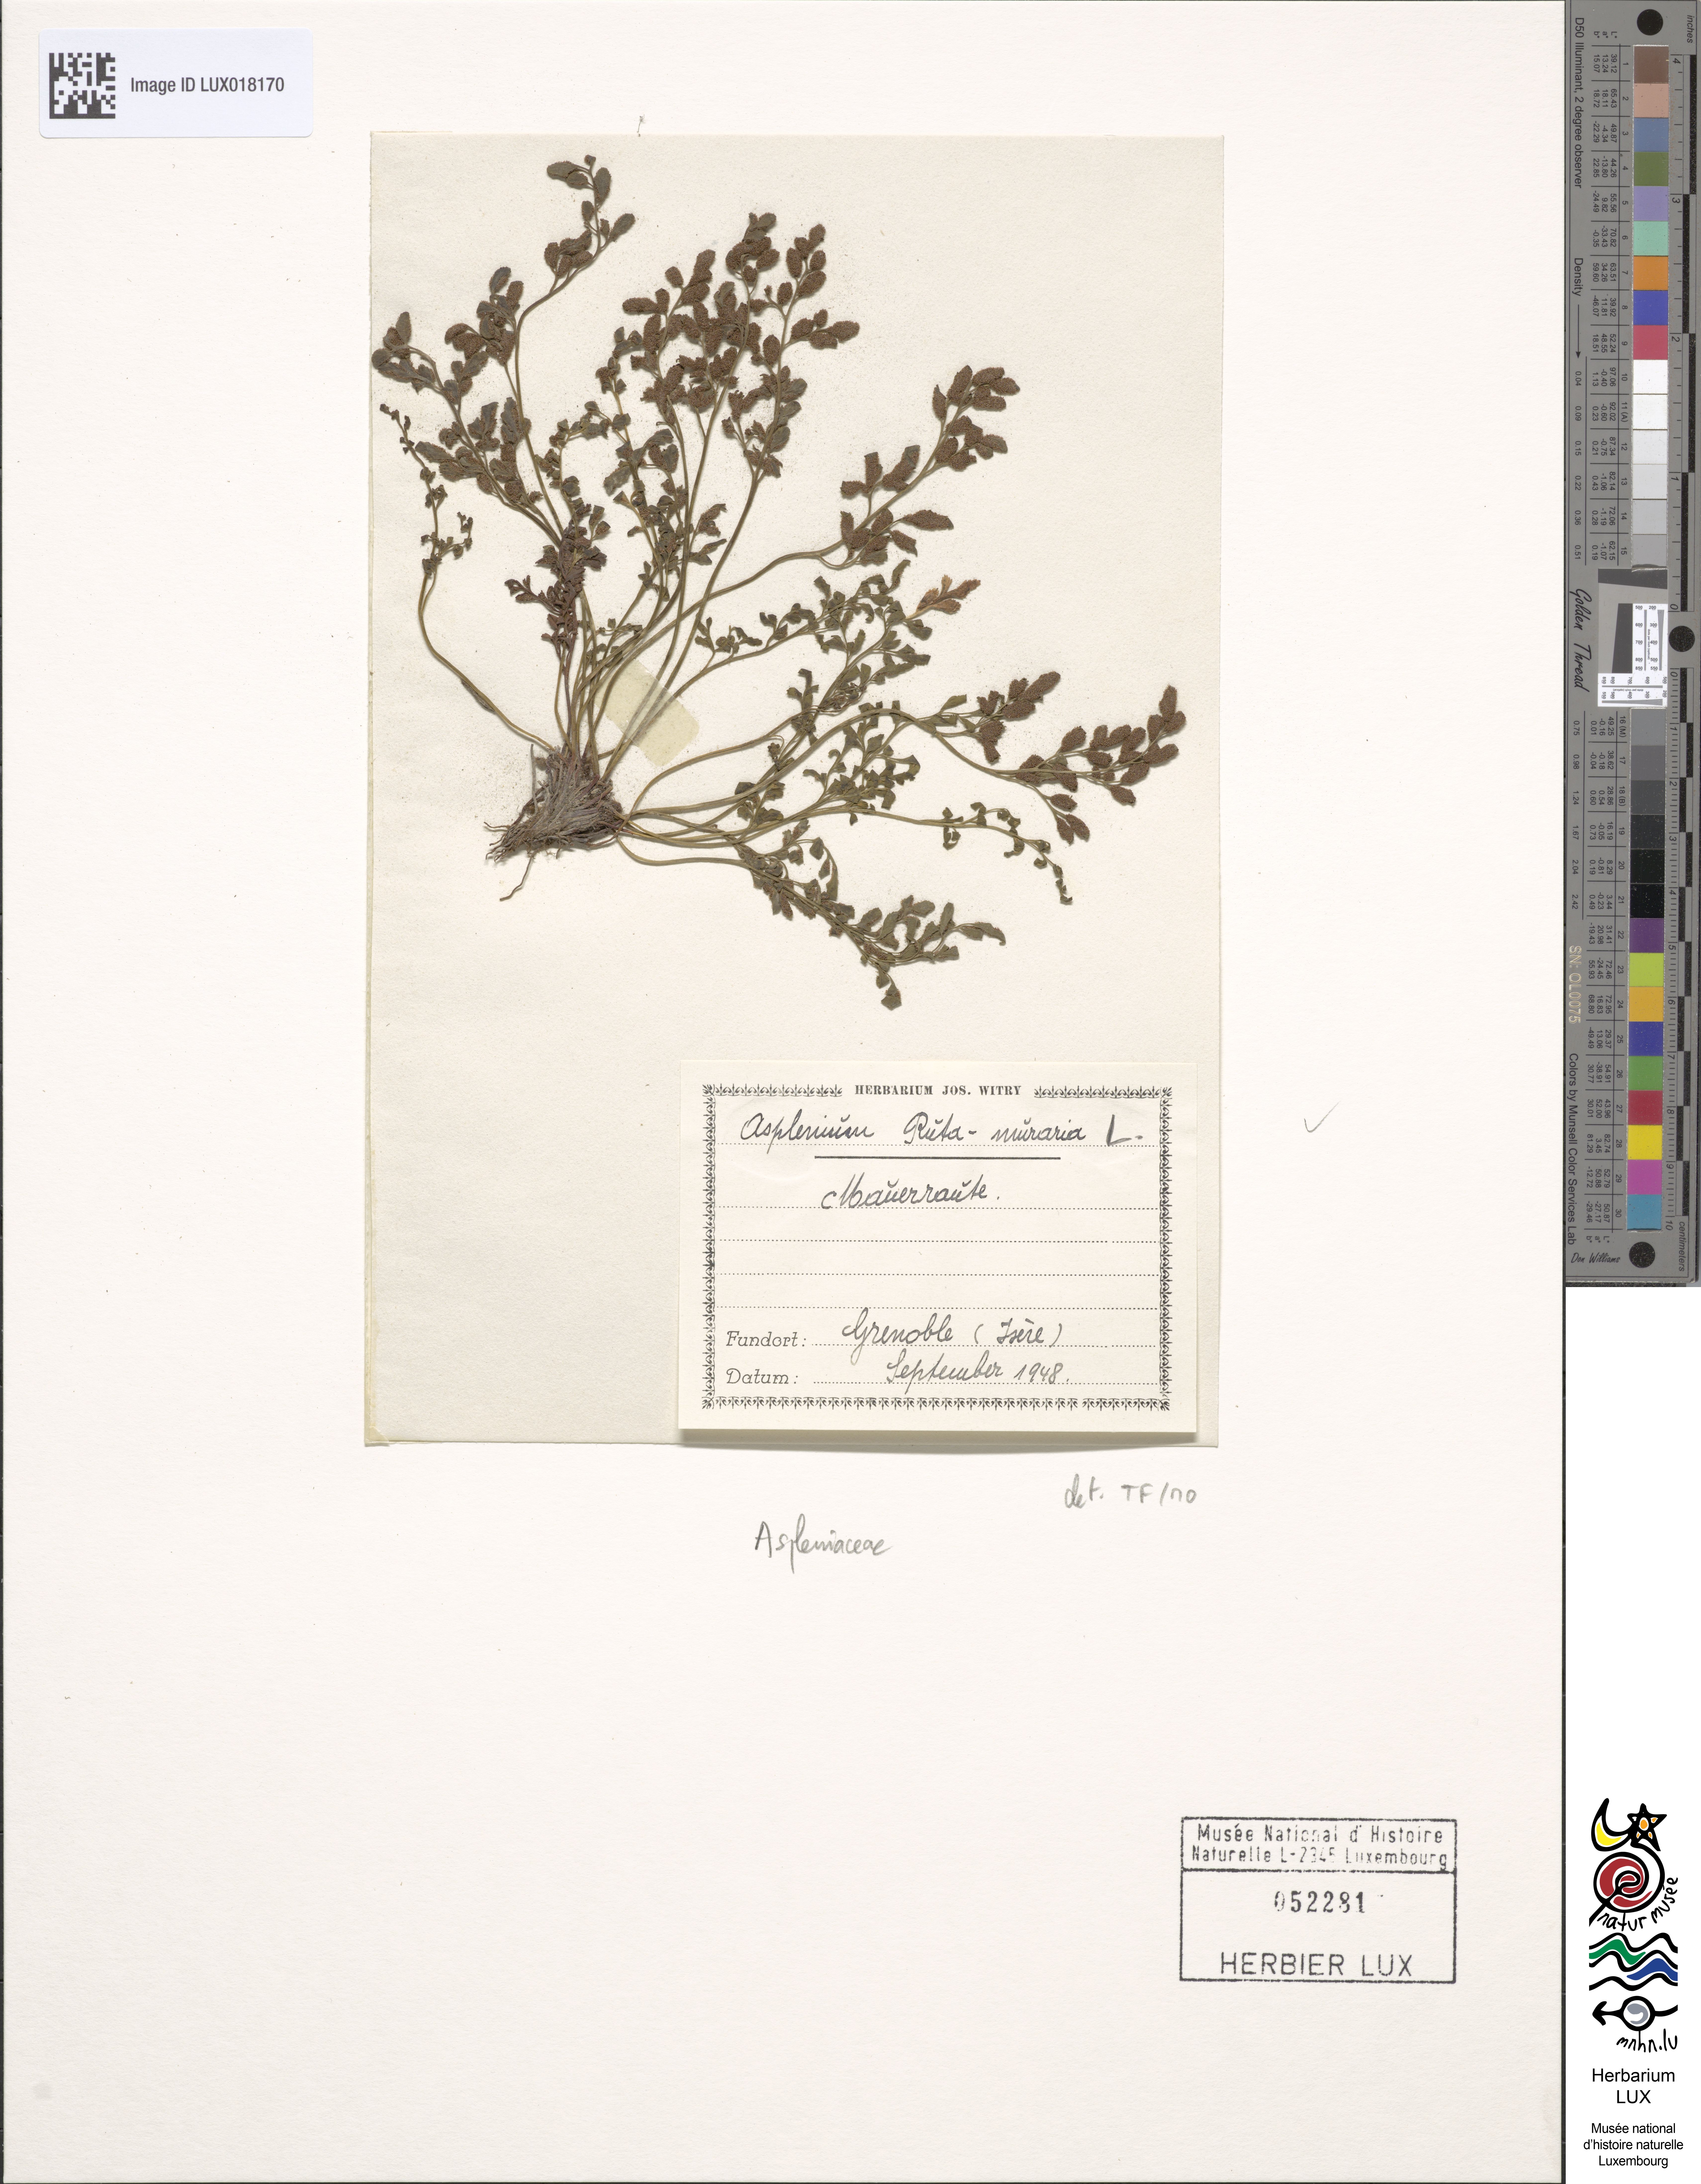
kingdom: Plantae
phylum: Tracheophyta
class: Polypodiopsida
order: Polypodiales
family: Aspleniaceae
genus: Asplenium
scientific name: Asplenium ruta-muraria
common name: Wall-rue
